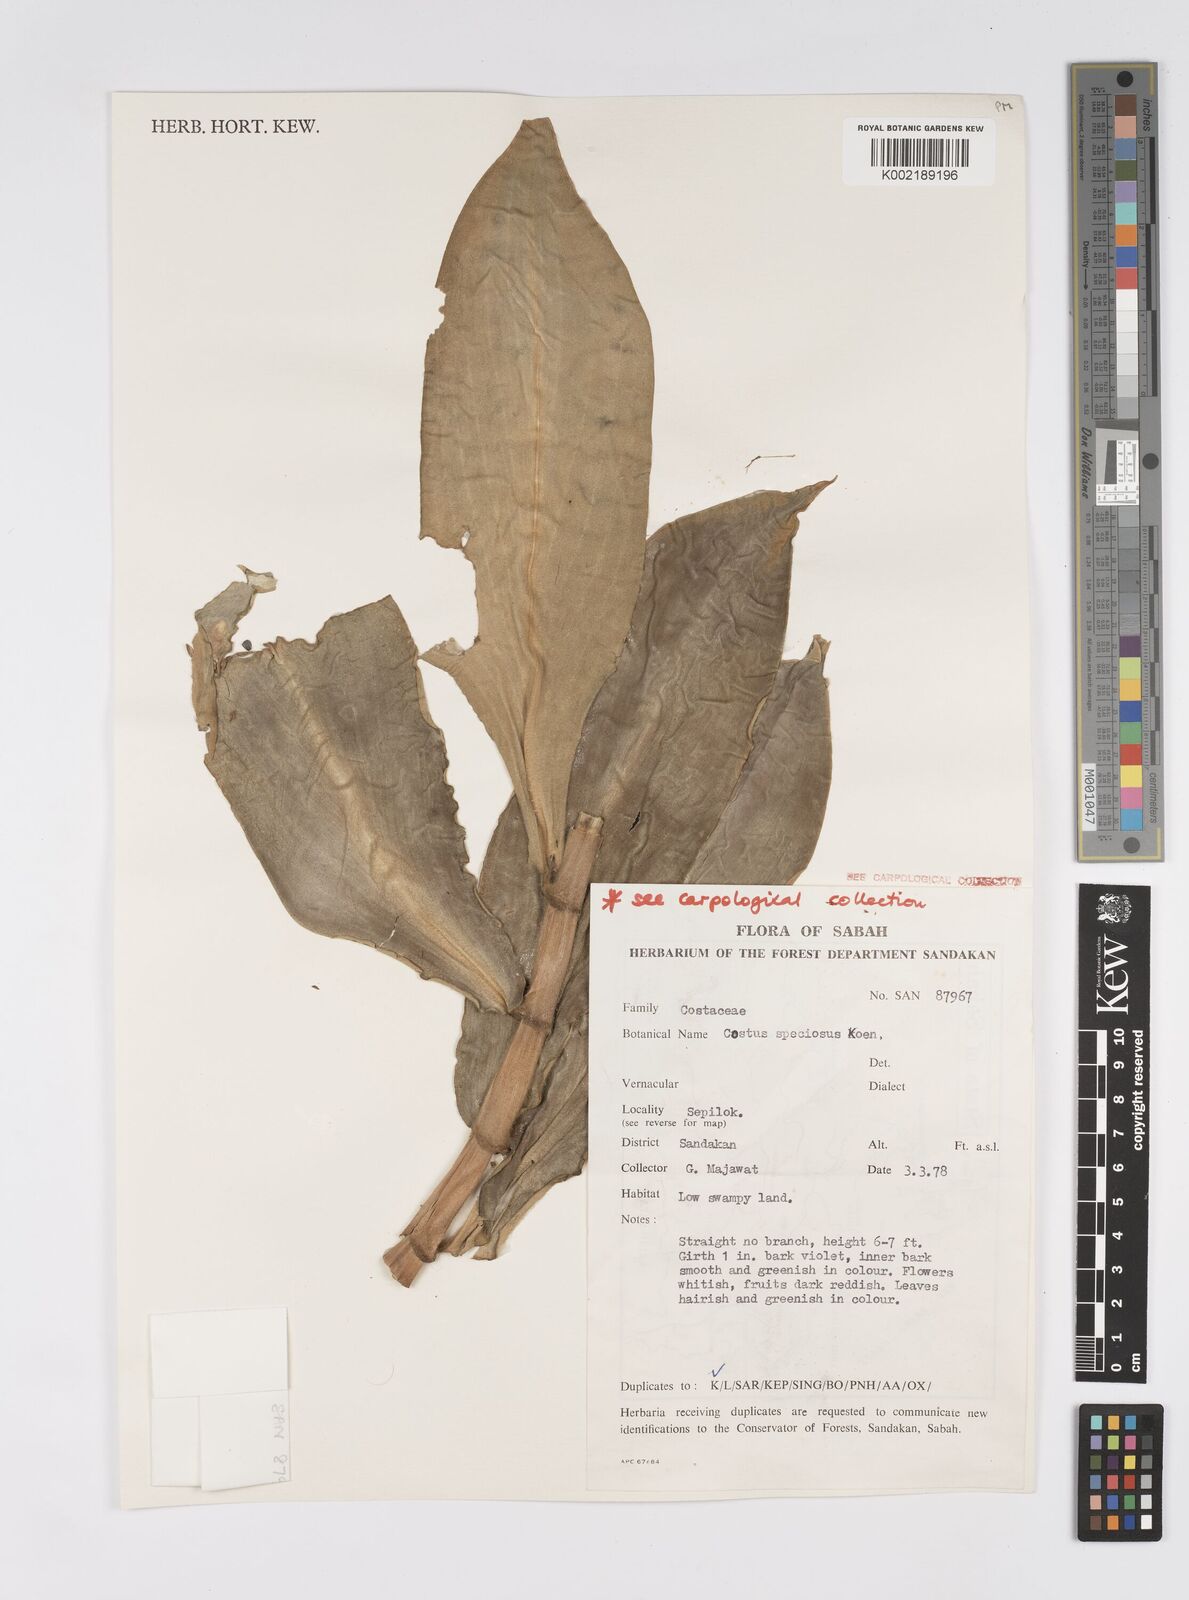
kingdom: Plantae
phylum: Tracheophyta
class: Liliopsida
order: Zingiberales
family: Costaceae
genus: Hellenia
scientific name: Hellenia speciosa
